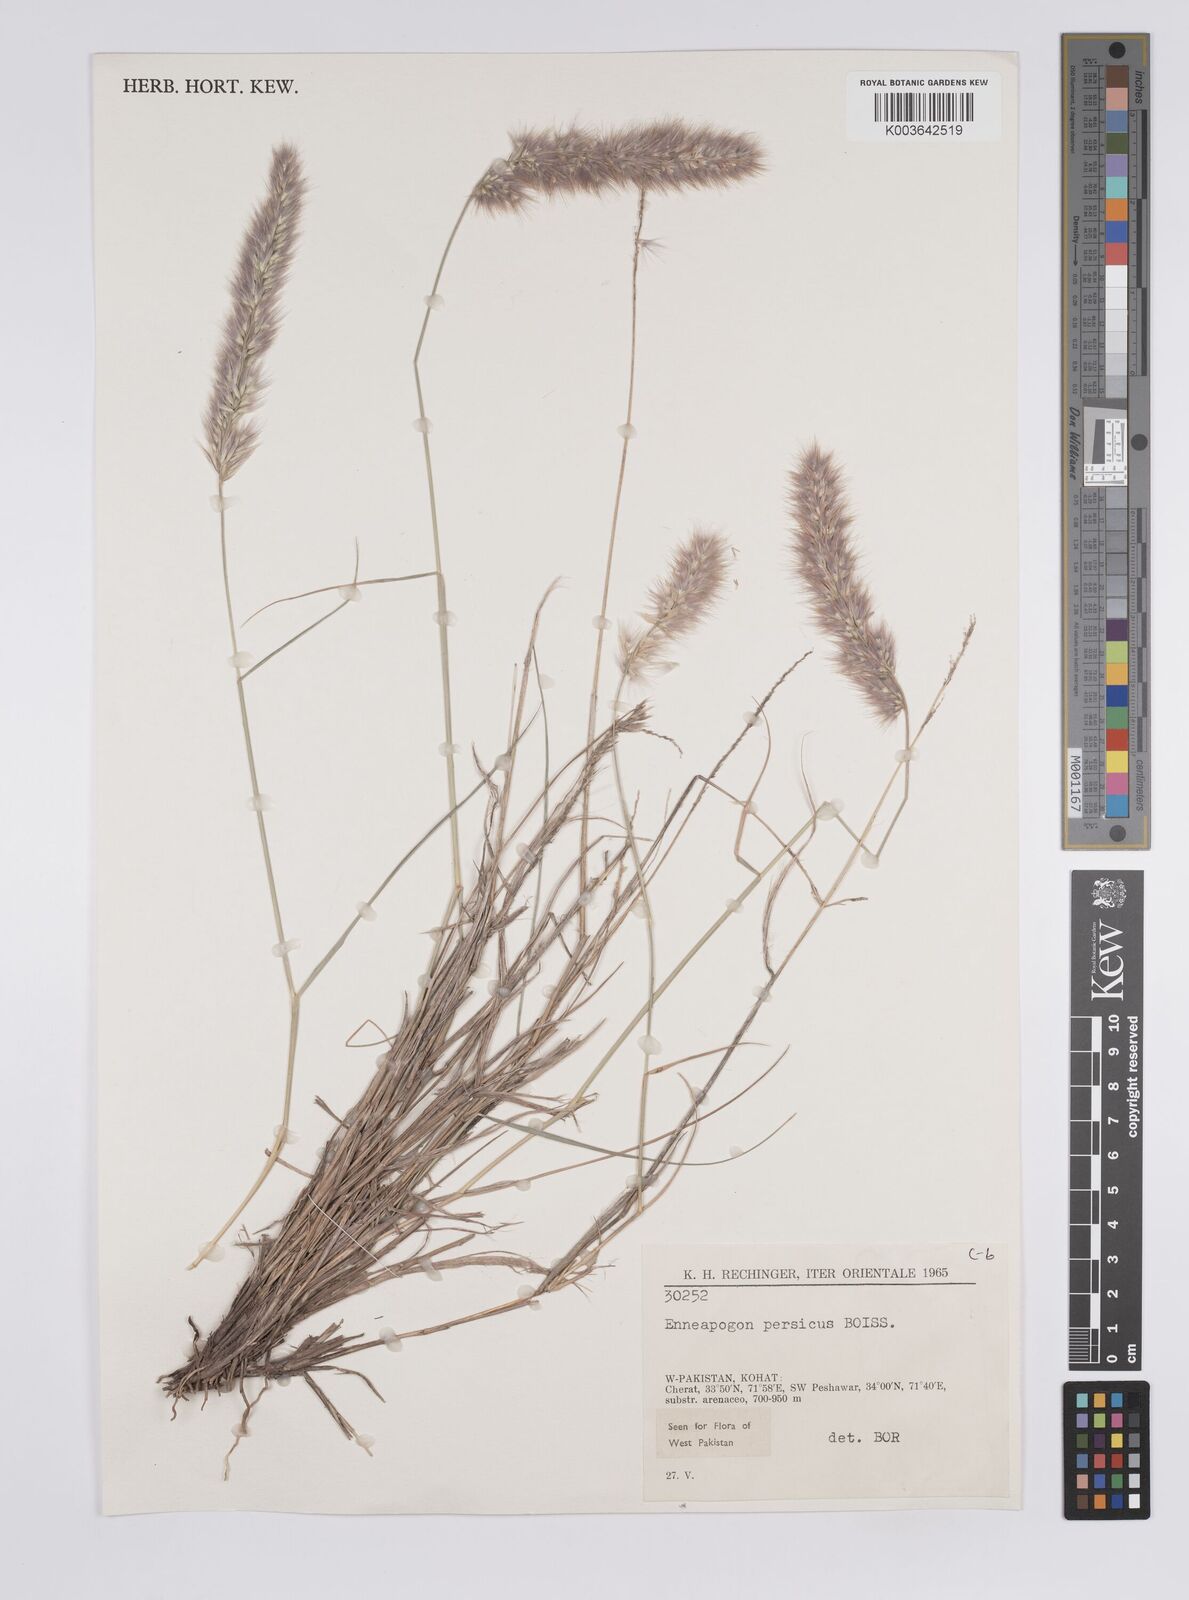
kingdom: Plantae
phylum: Tracheophyta
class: Liliopsida
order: Poales
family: Poaceae
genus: Enneapogon
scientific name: Enneapogon persicus
